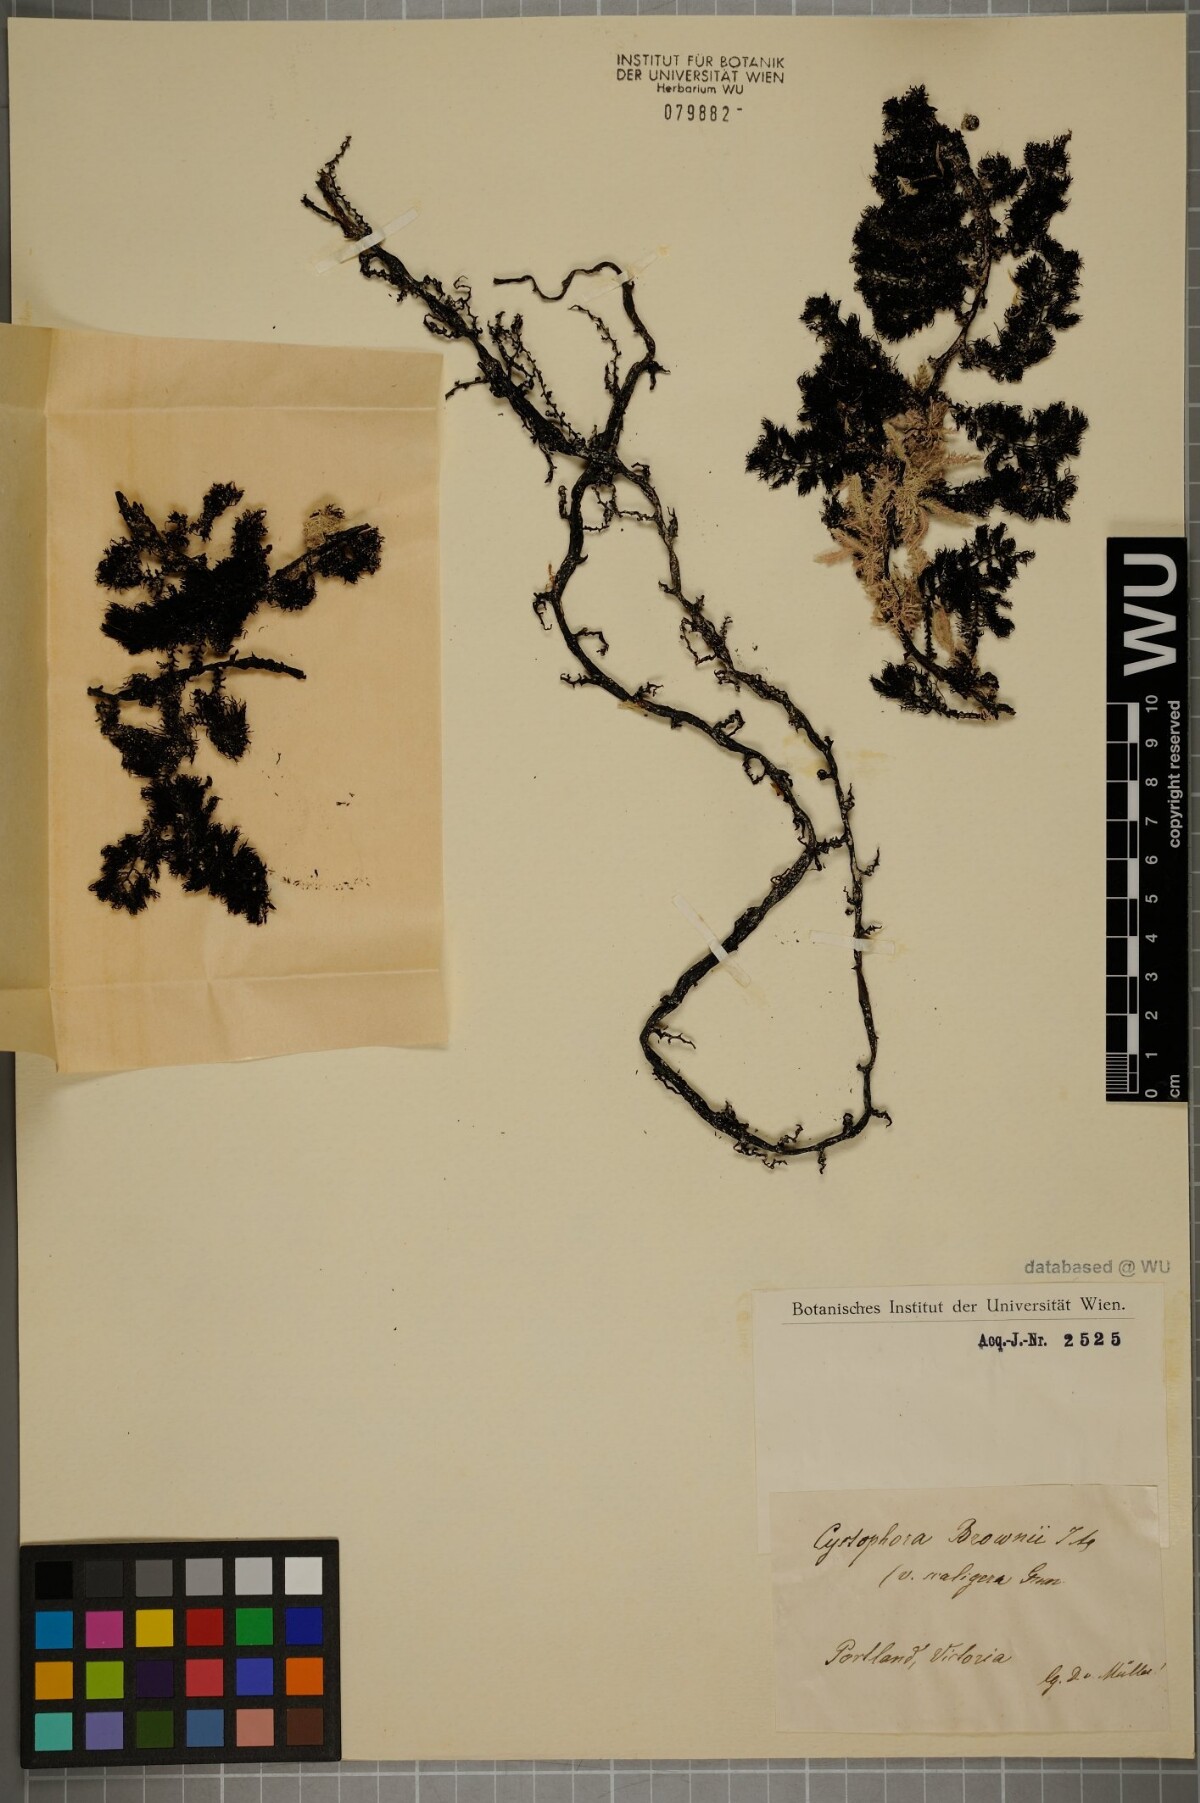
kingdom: Chromista
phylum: Ochrophyta
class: Phaeophyceae
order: Fucales
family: Sargassaceae
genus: Cystophora
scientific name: Cystophora
